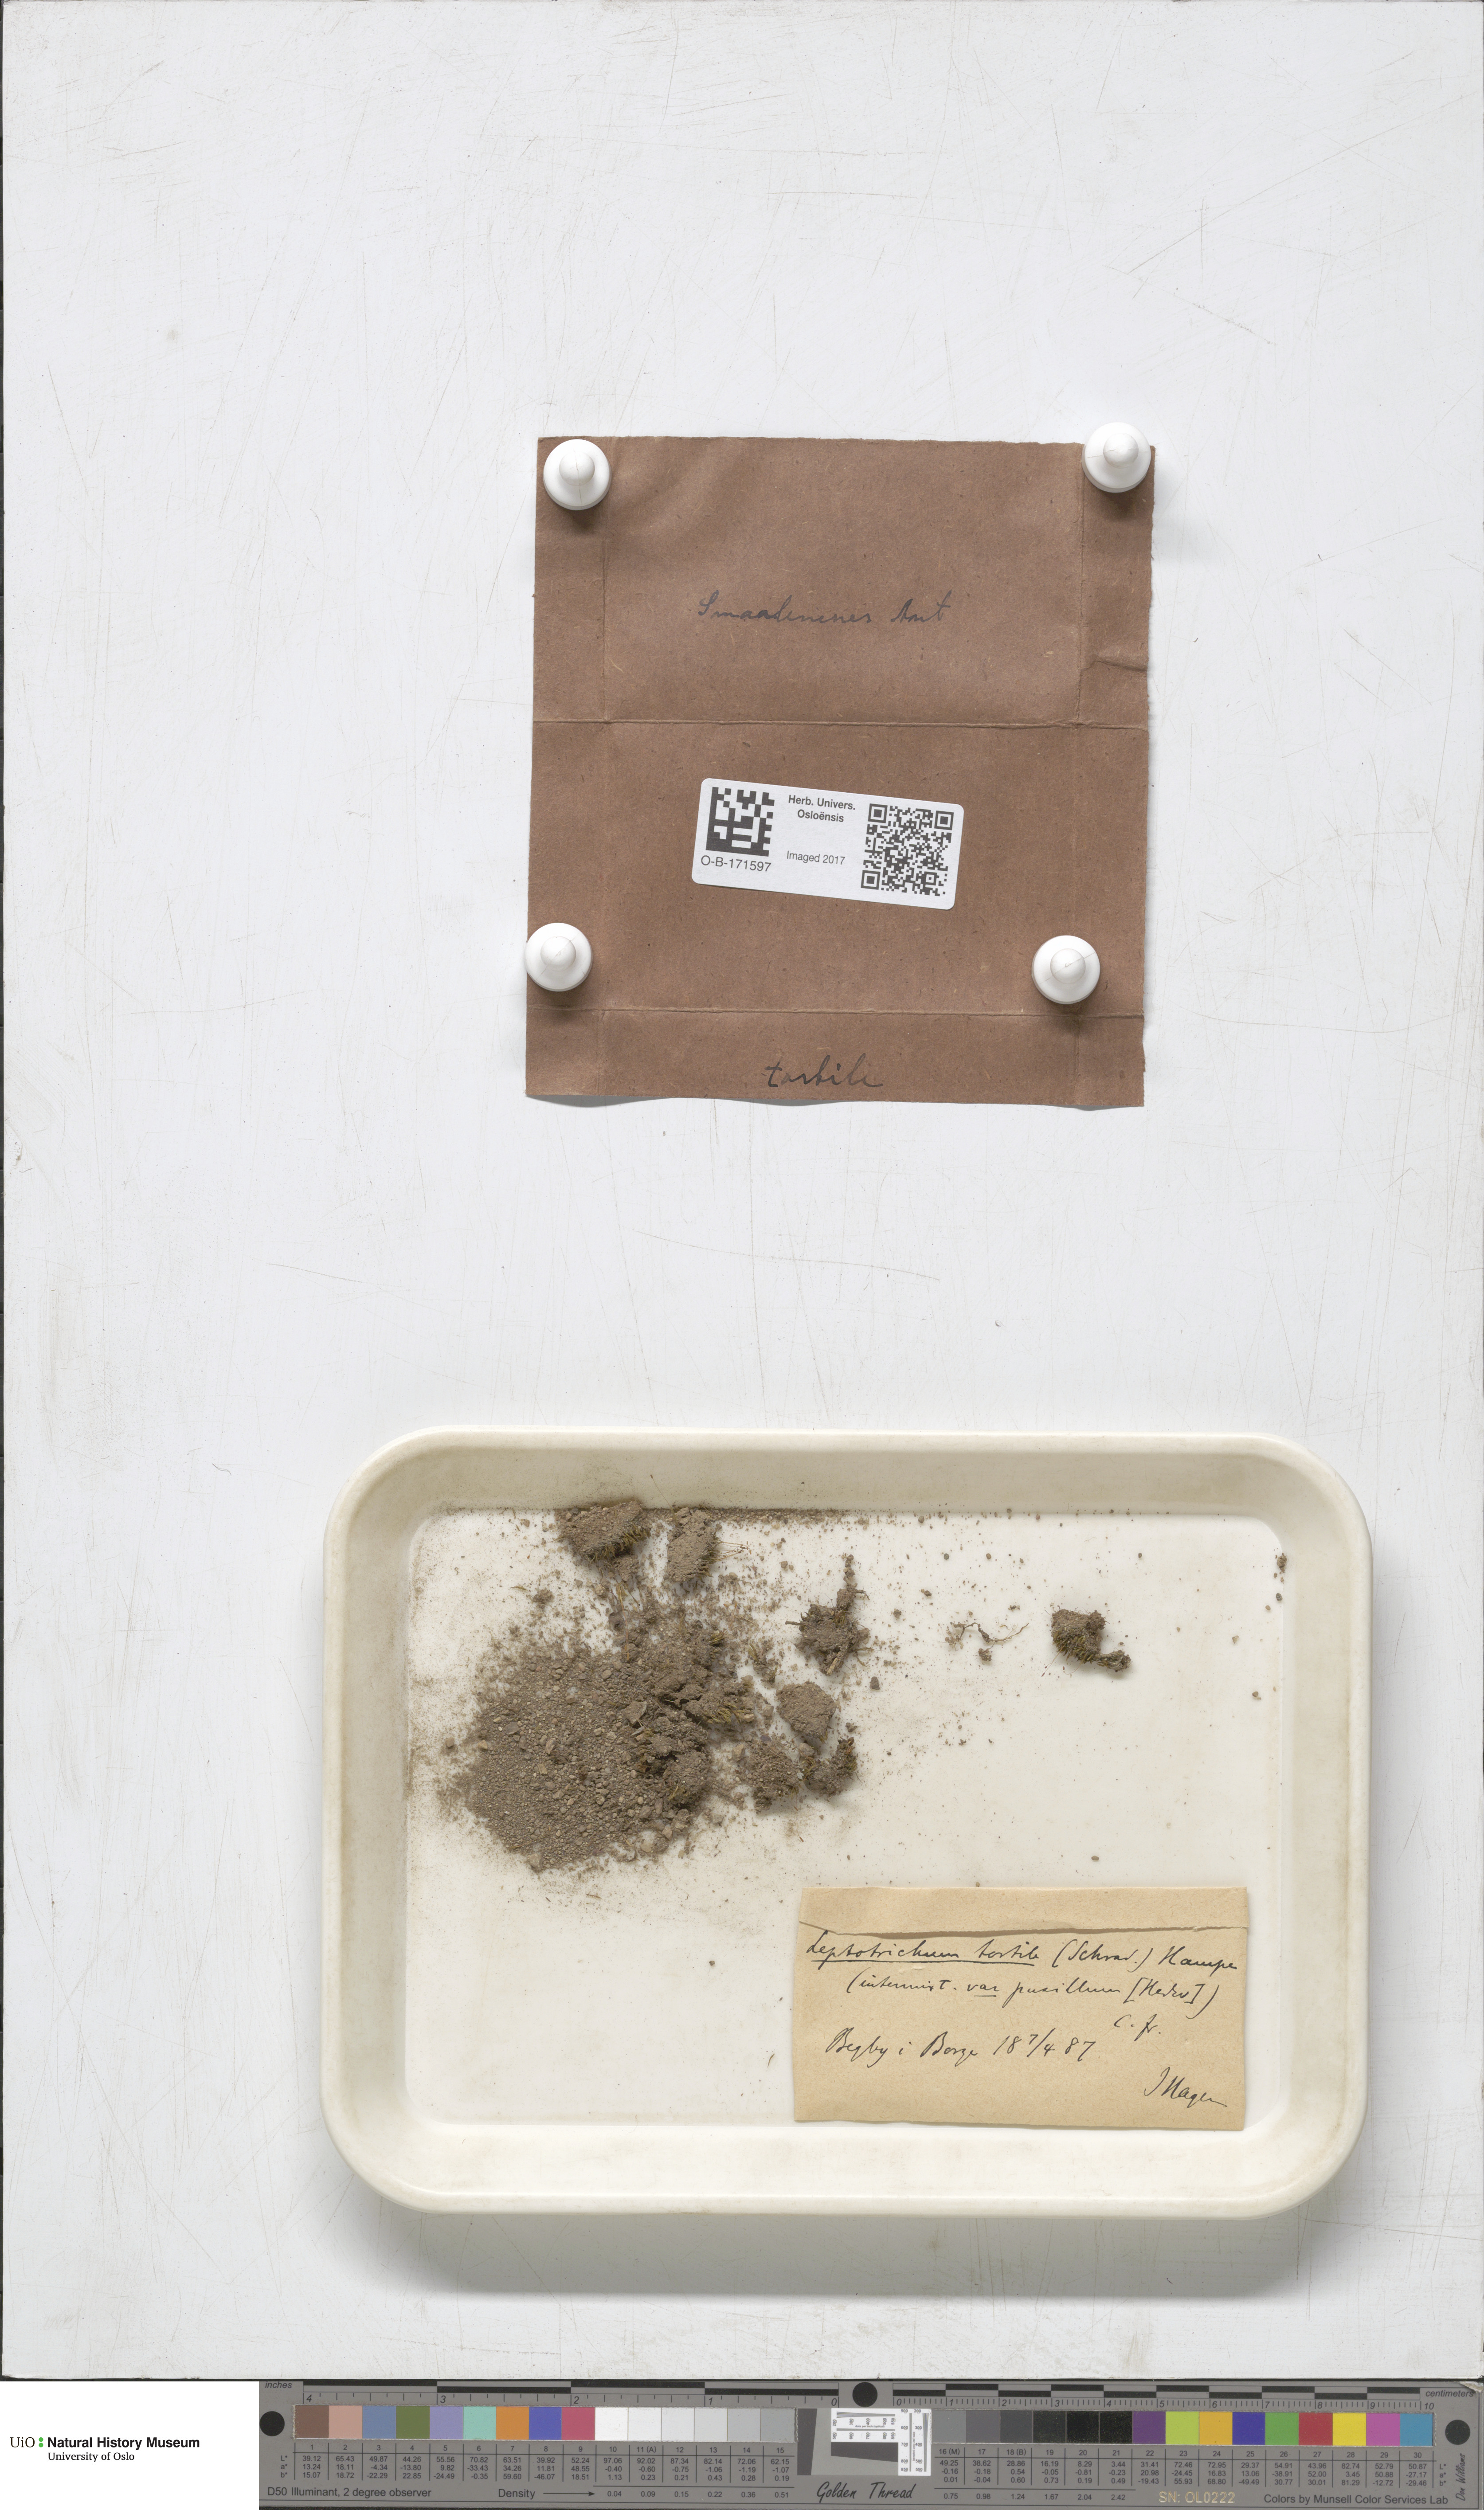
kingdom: Plantae
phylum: Bryophyta
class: Bryopsida
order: Dicranales
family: Ditrichaceae
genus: Ditrichum
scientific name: Ditrichum pusillum
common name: Brown cow-hair moss
